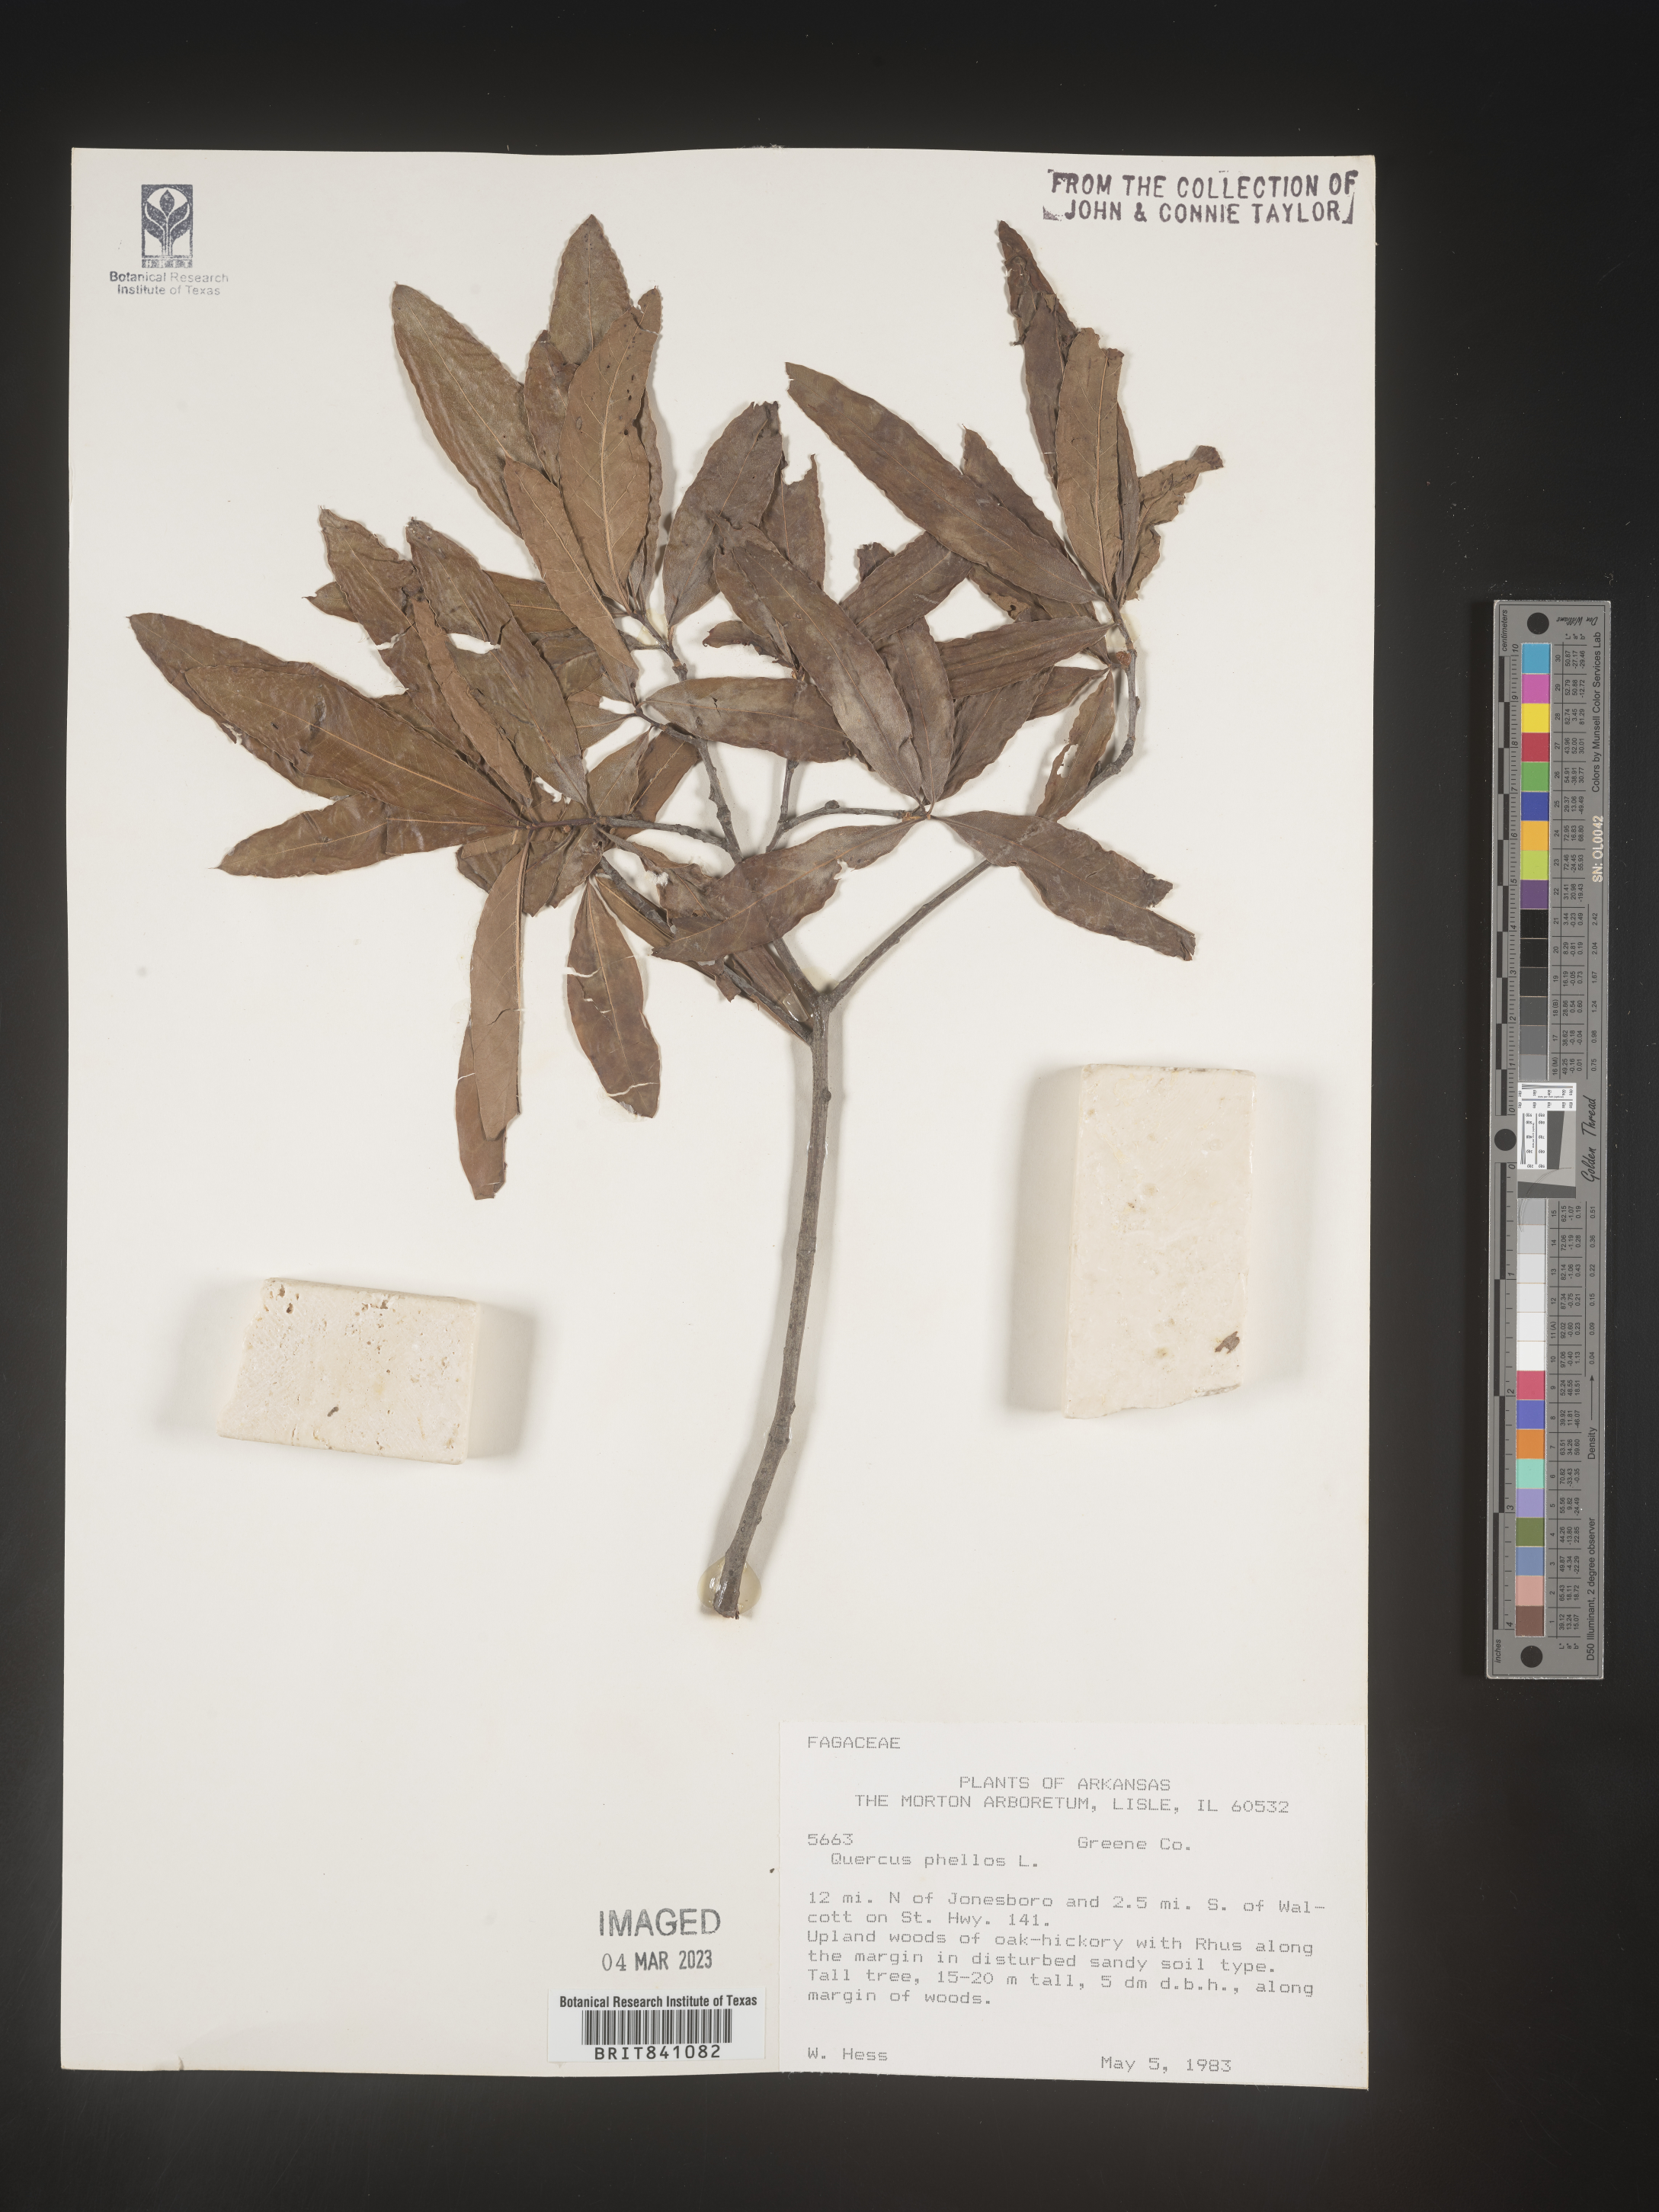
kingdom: Plantae
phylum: Tracheophyta
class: Magnoliopsida
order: Fagales
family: Fagaceae
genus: Quercus
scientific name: Quercus phellos
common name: Willow oak
